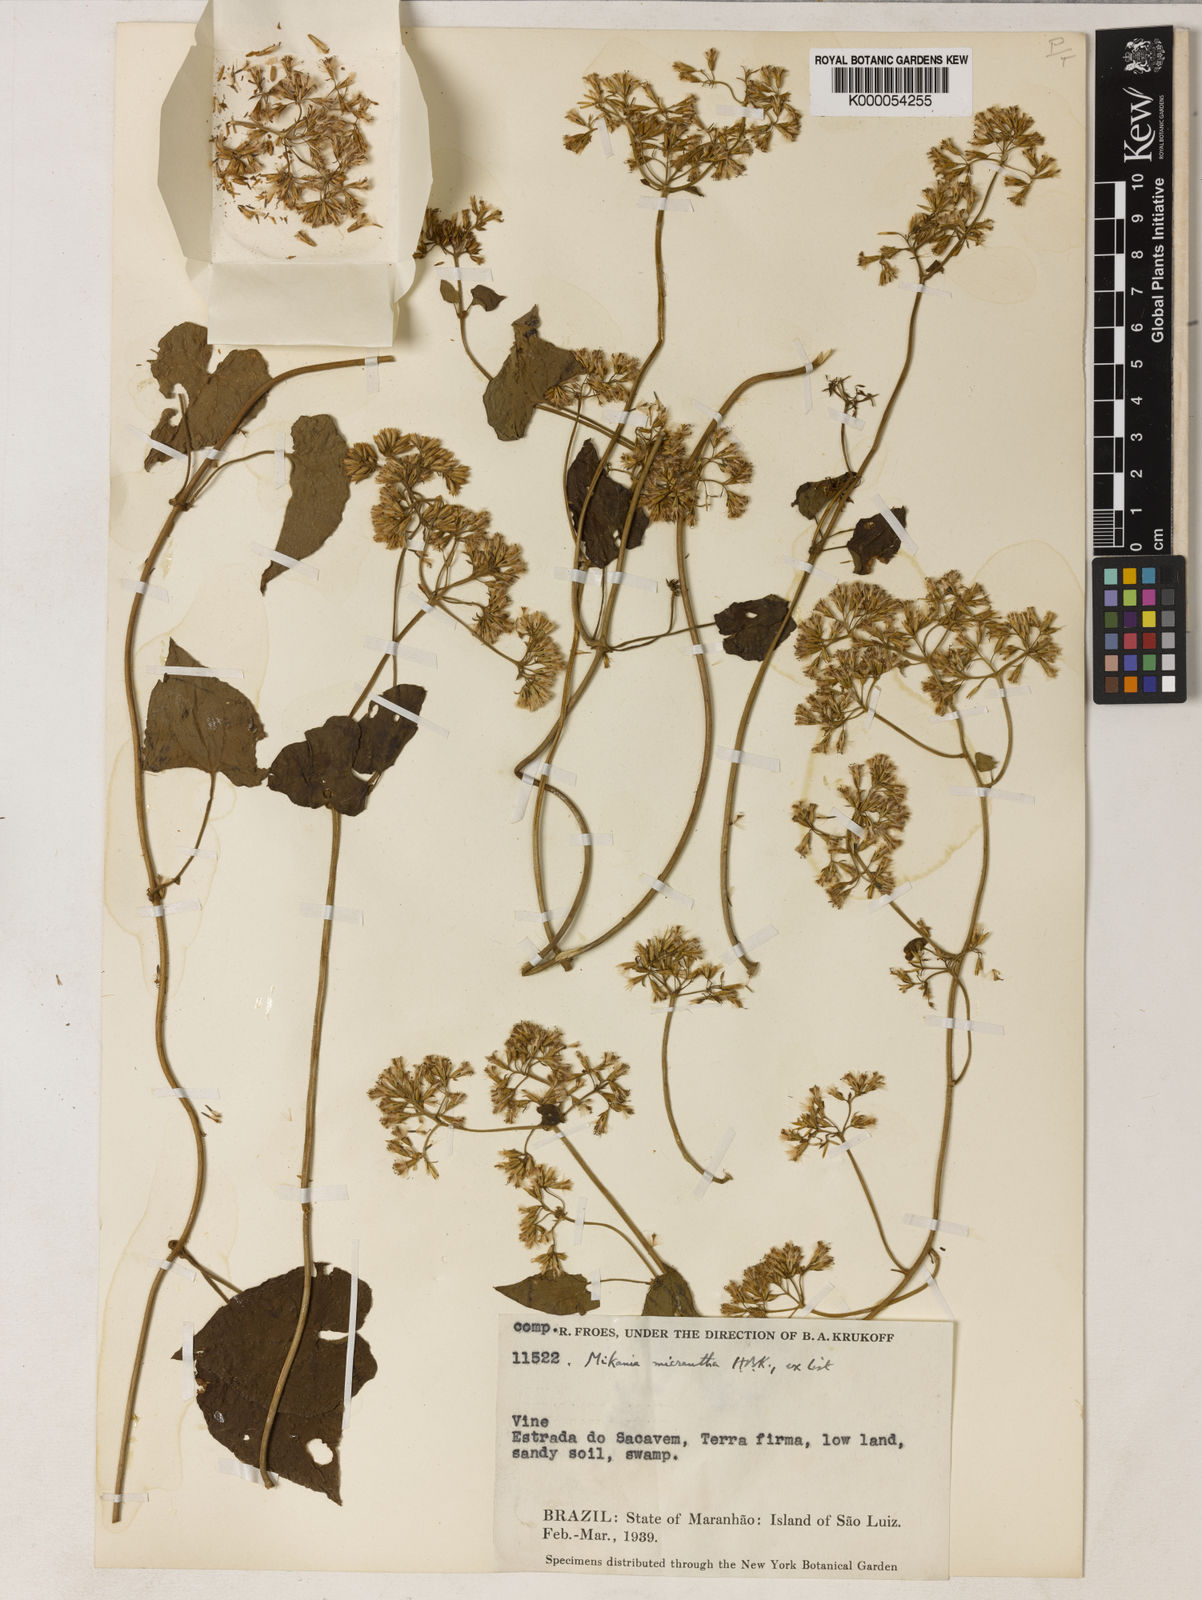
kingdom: Plantae
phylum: Tracheophyta
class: Magnoliopsida
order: Asterales
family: Asteraceae
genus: Mikania
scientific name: Mikania micrantha
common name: Mile-a-minute
